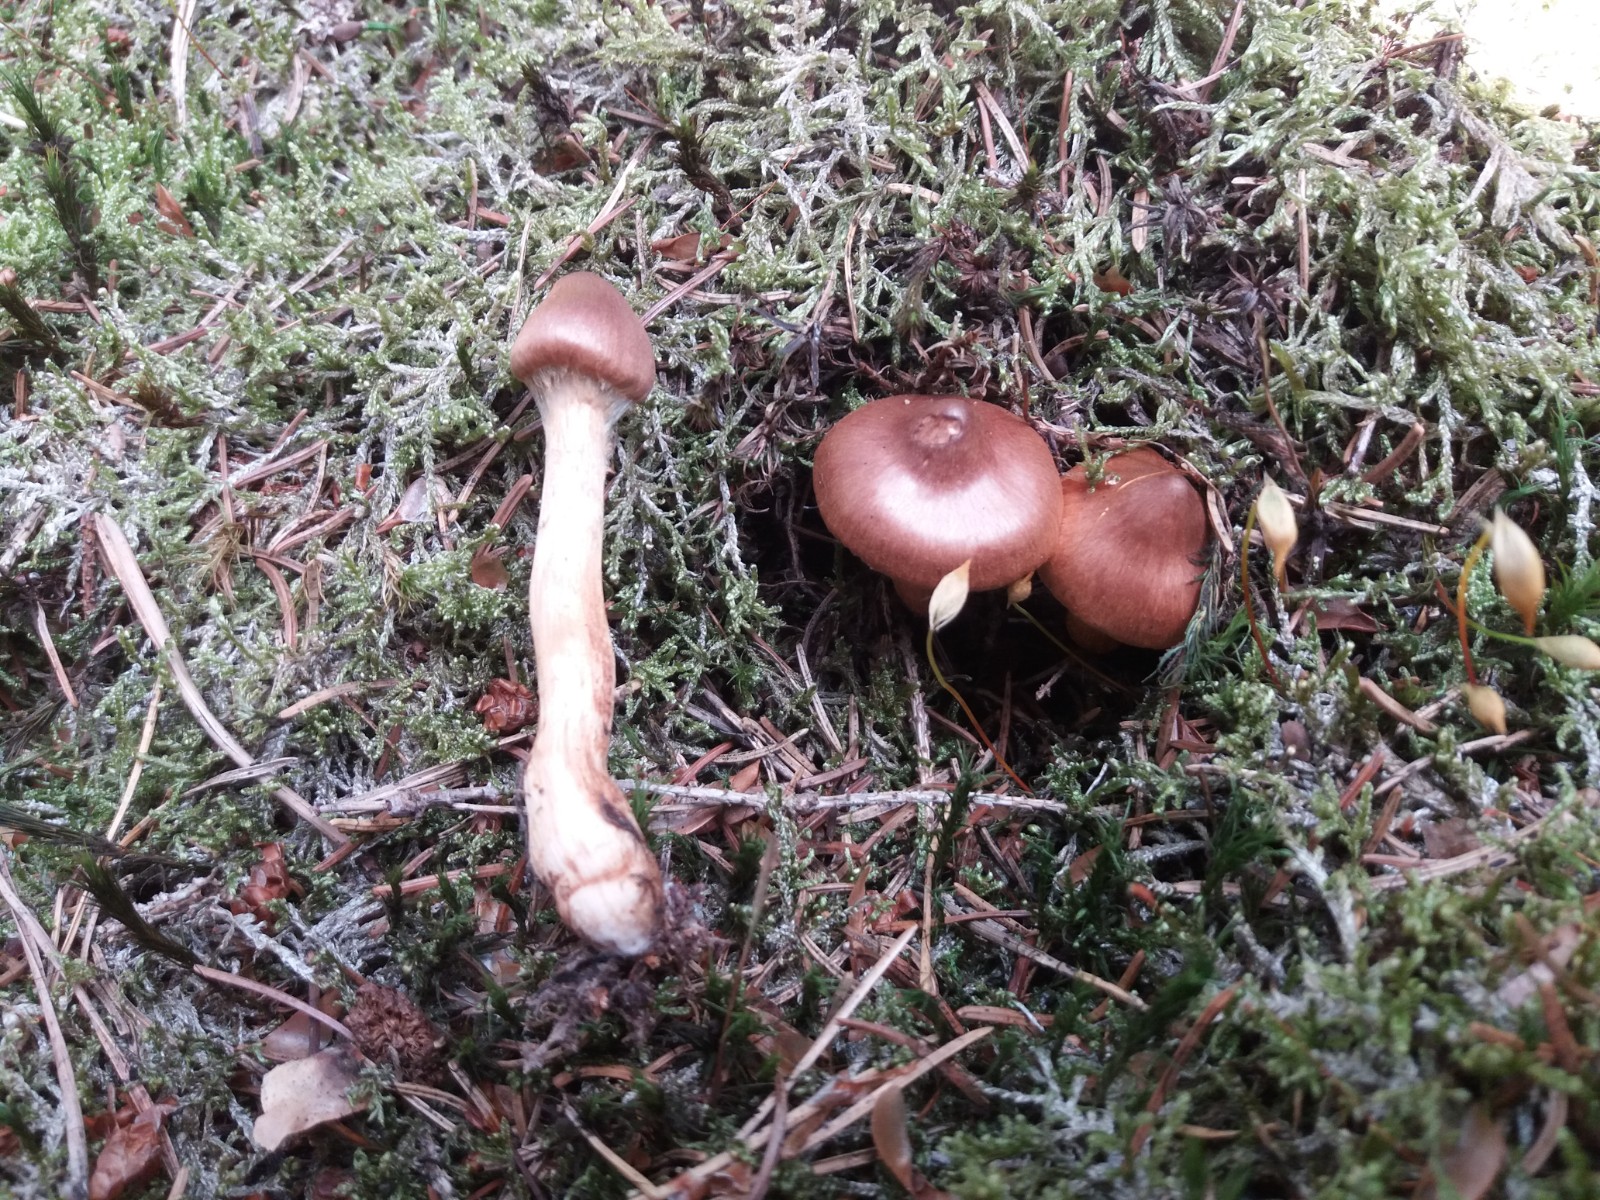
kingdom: Fungi
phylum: Basidiomycota
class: Agaricomycetes
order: Agaricales
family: Cortinariaceae
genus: Cortinarius
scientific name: Cortinarius rubellus
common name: puklet gift-slørhat
